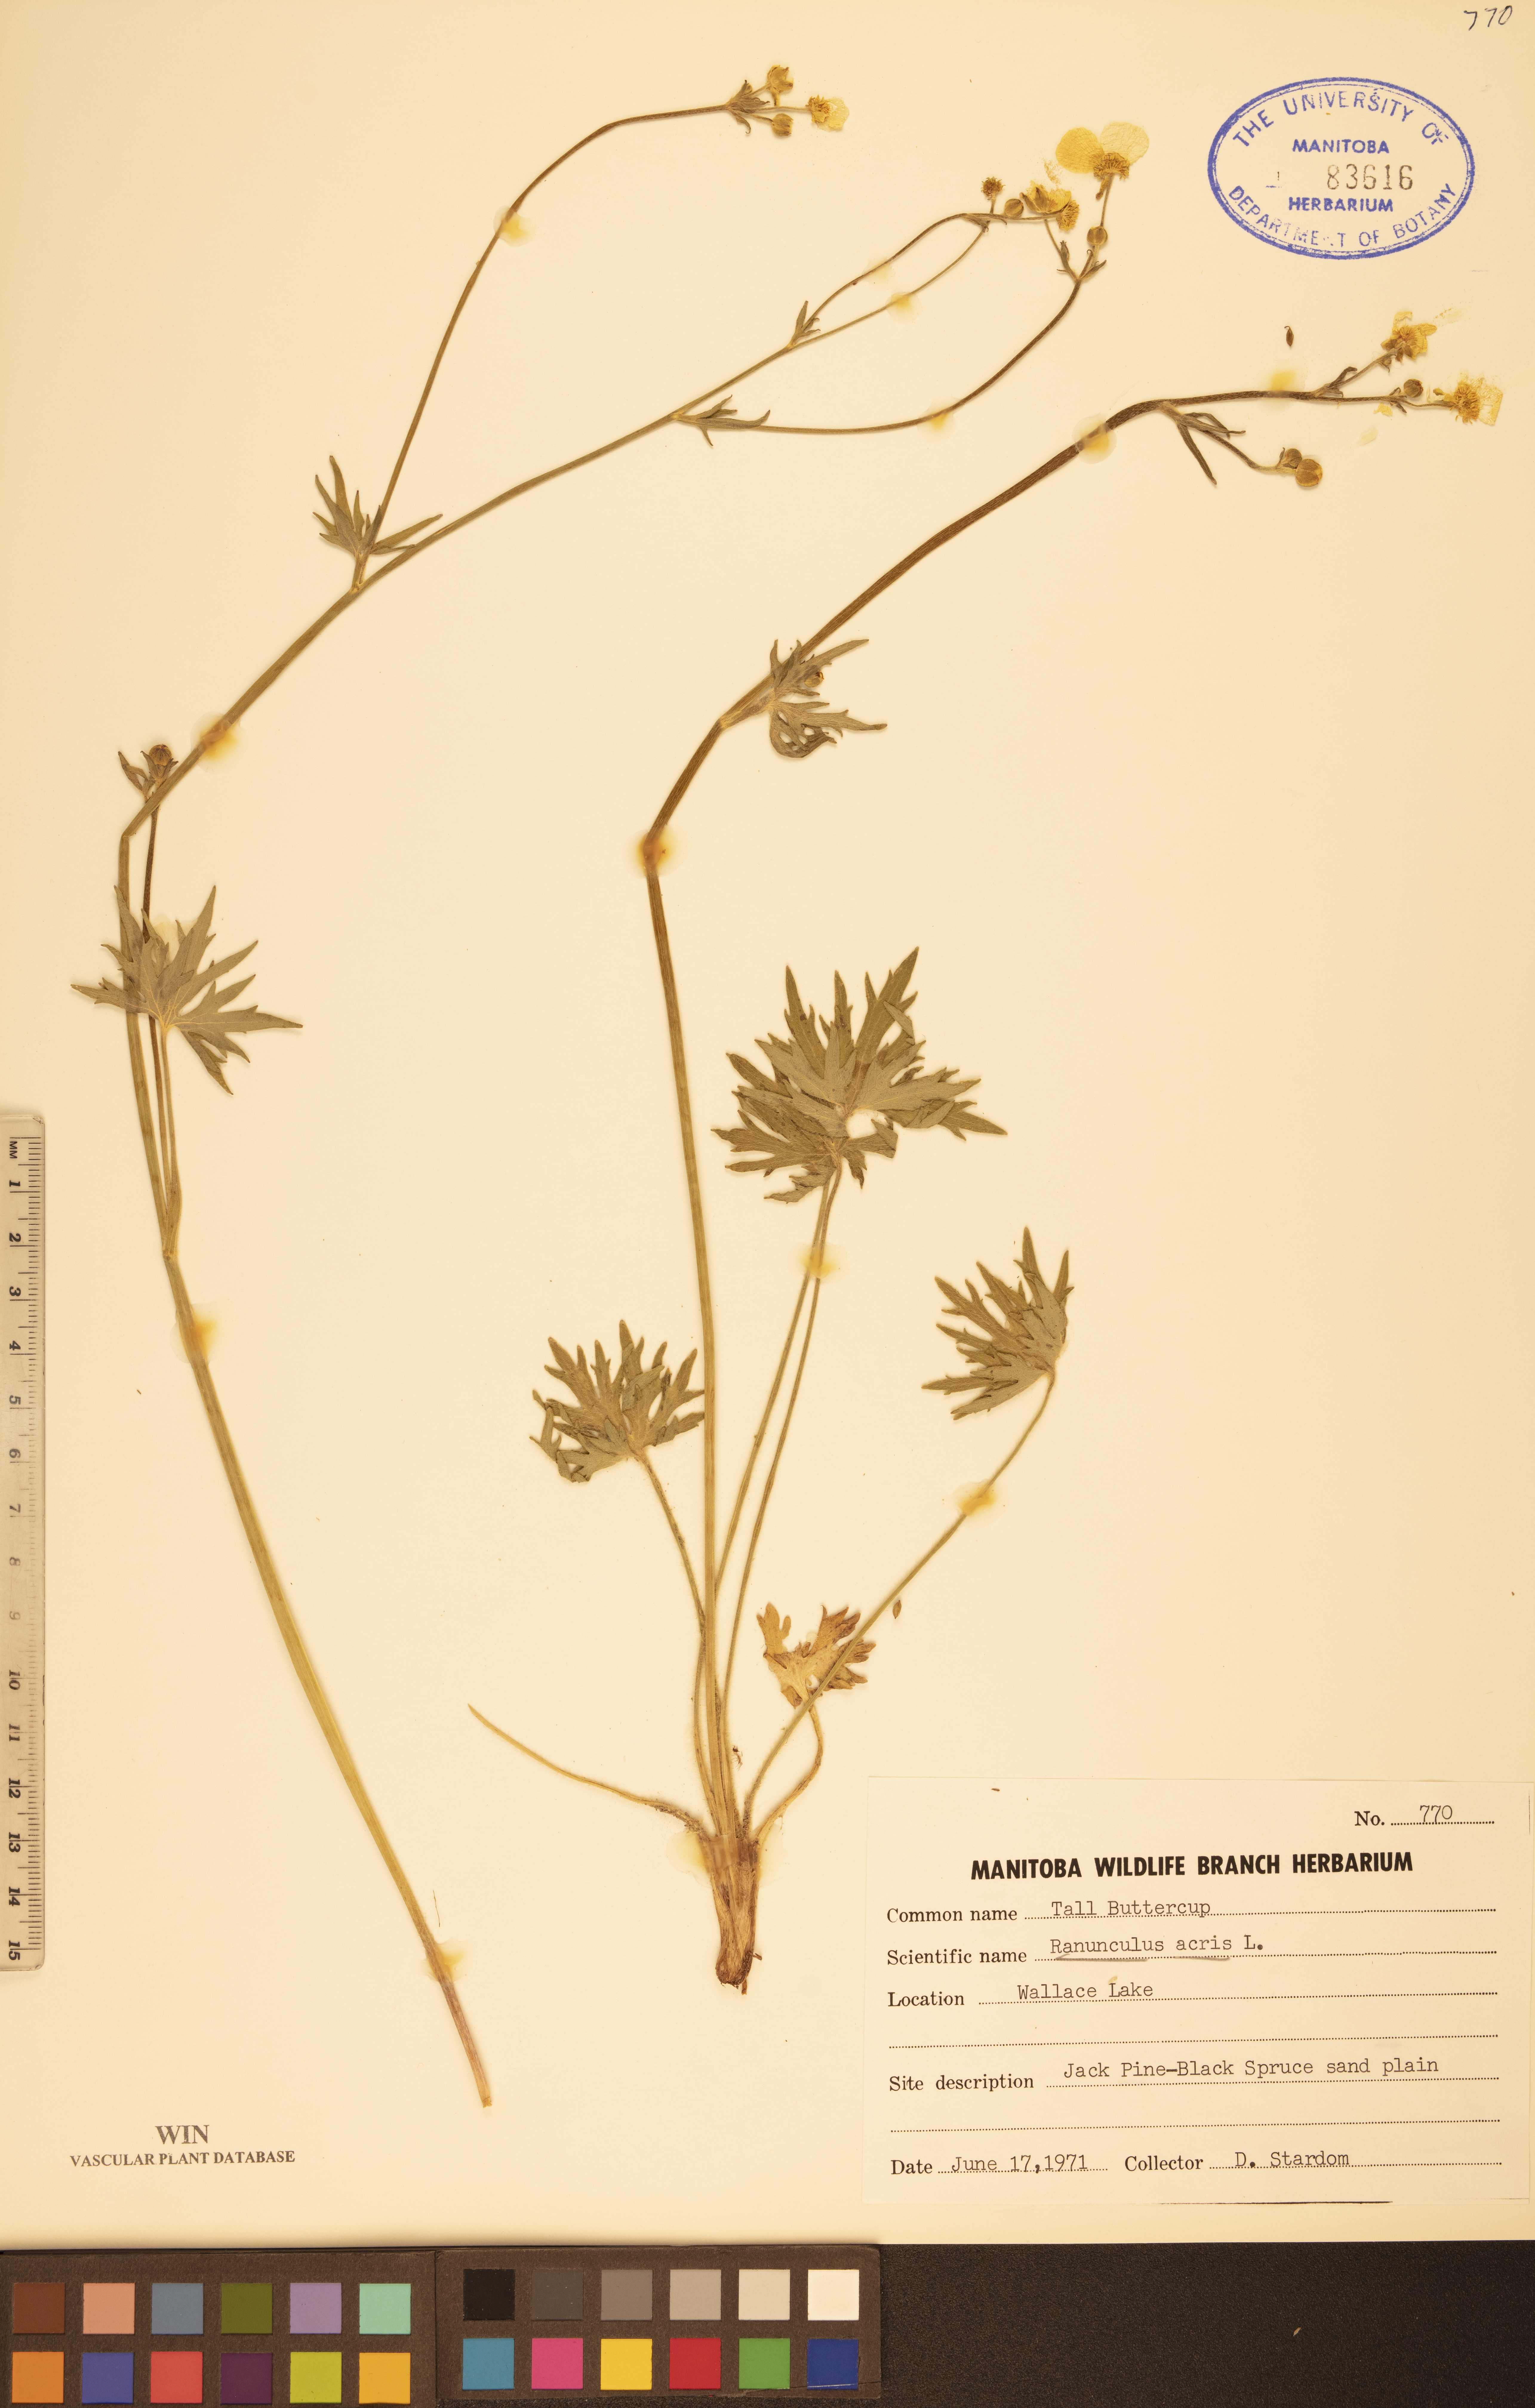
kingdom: Plantae
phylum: Tracheophyta
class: Magnoliopsida
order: Ranunculales
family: Ranunculaceae
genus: Ranunculus
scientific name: Ranunculus acris
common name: Meadow buttercup
